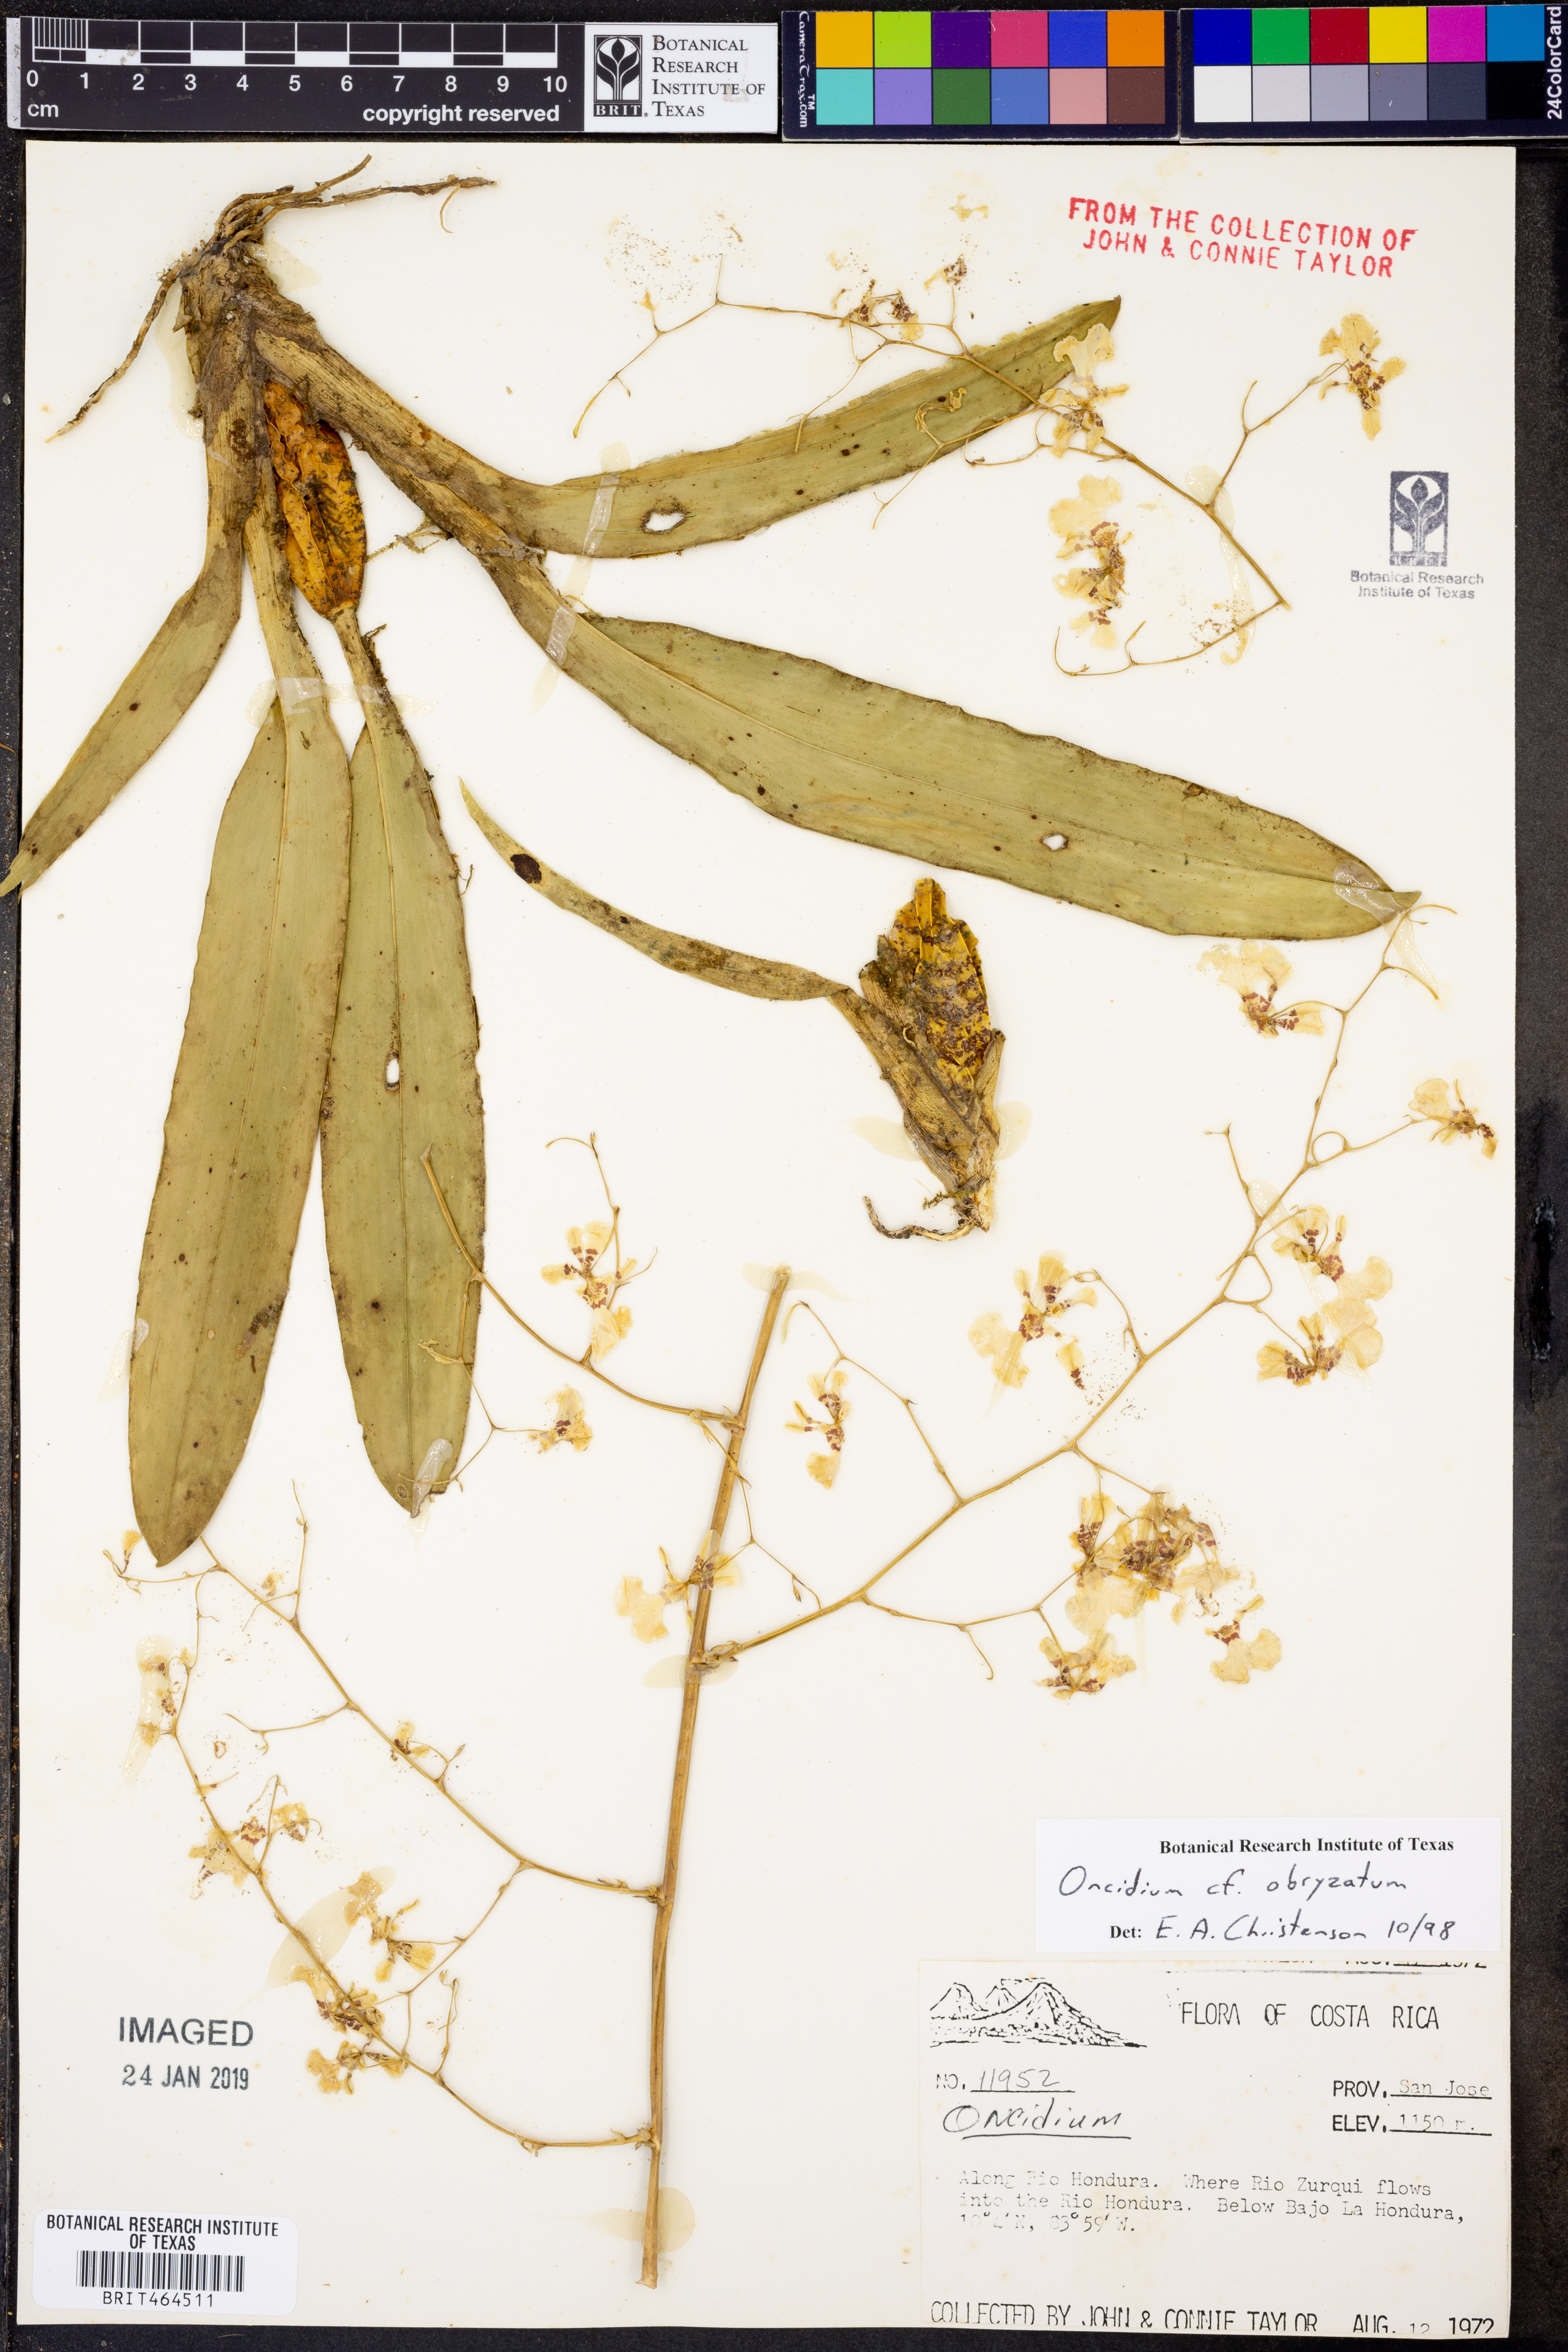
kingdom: Plantae
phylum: Tracheophyta
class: Liliopsida
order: Asparagales
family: Orchidaceae
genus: Oncidium
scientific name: Oncidium obryzatum
